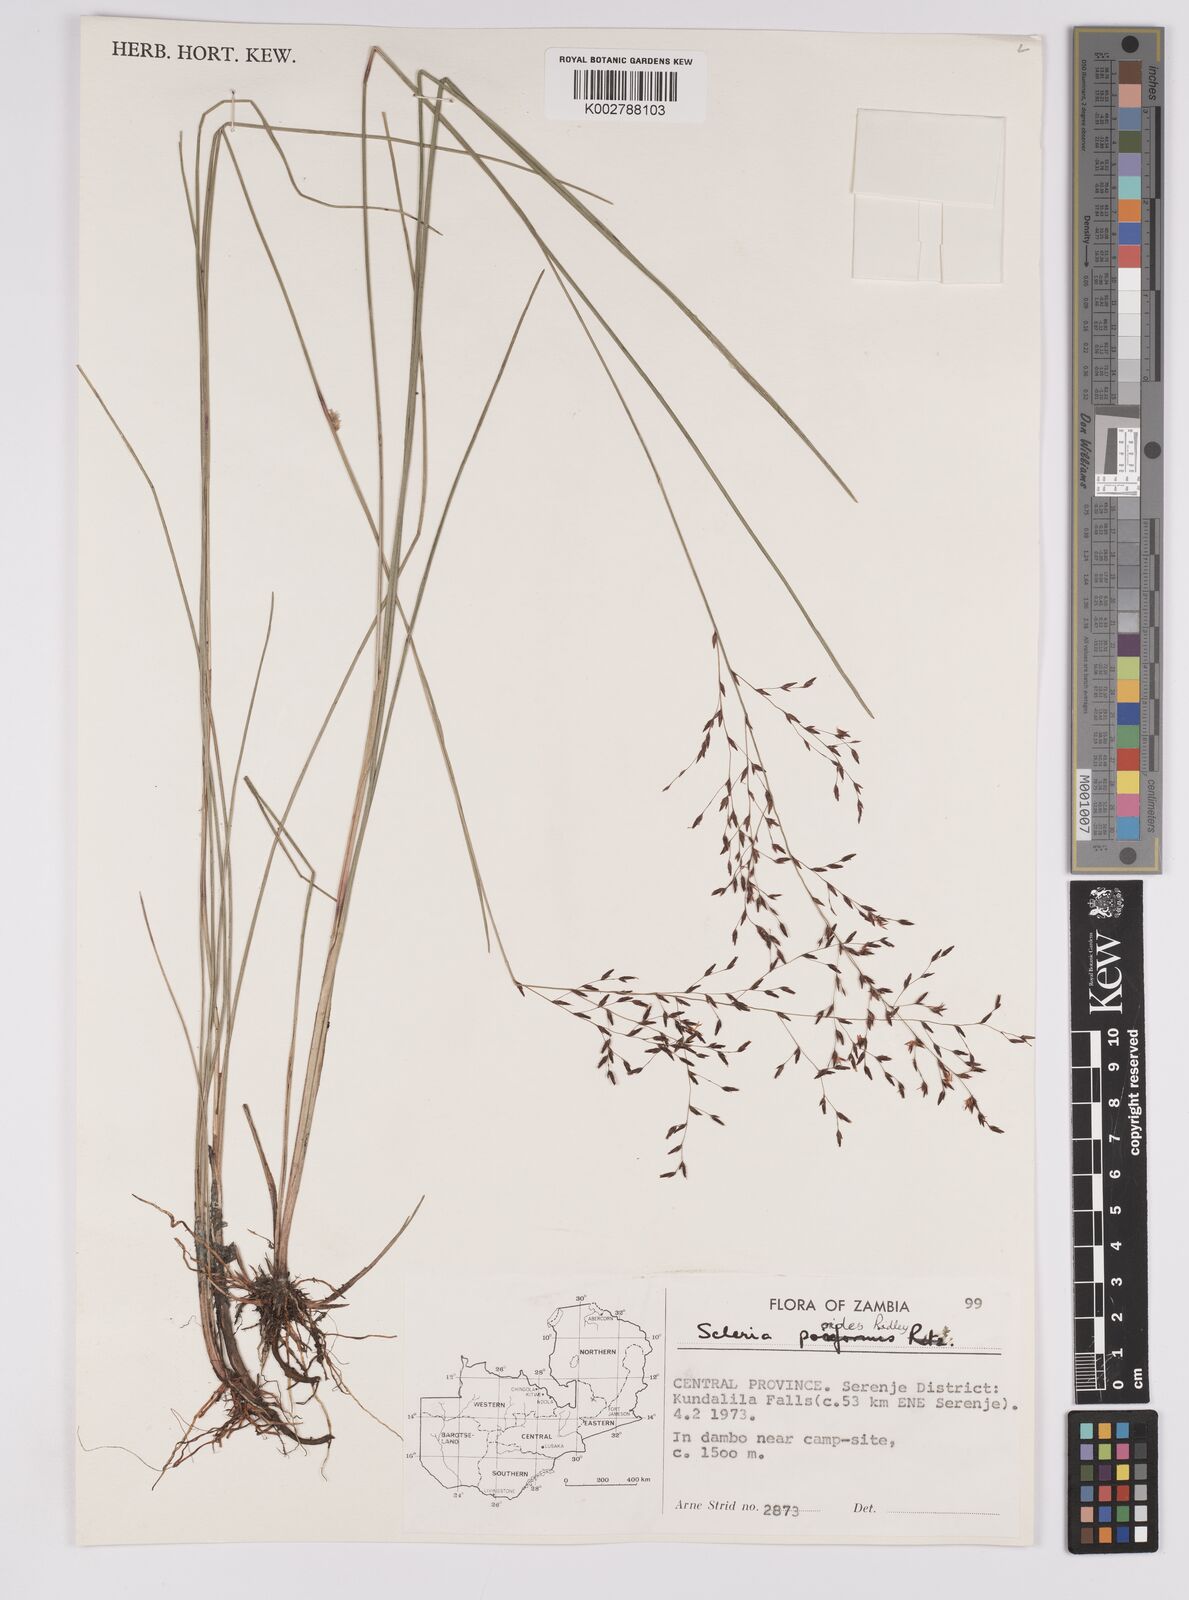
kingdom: Plantae
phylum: Tracheophyta
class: Liliopsida
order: Poales
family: Cyperaceae
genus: Scleria
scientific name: Scleria pooides
